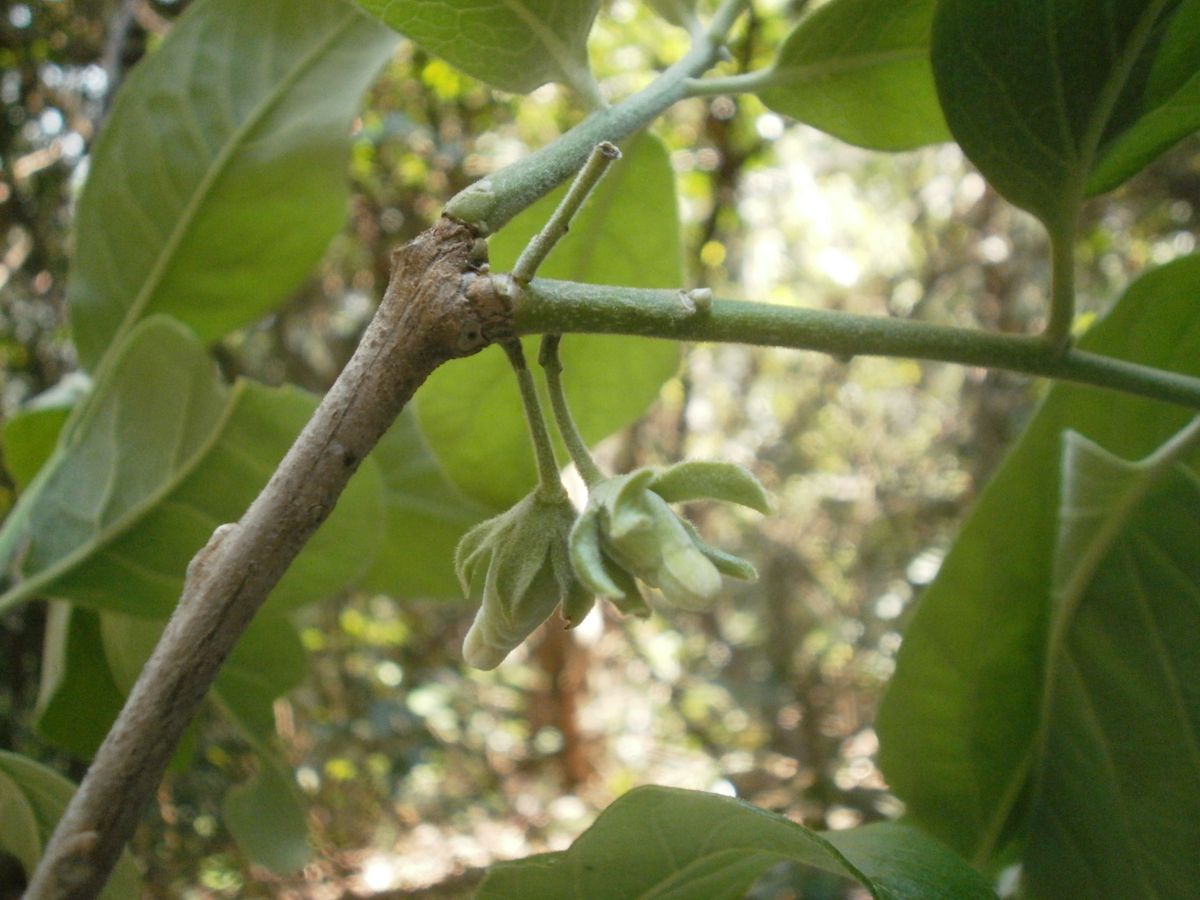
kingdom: Plantae
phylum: Tracheophyta
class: Magnoliopsida
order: Ericales
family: Ebenaceae
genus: Diospyros
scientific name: Diospyros rekoi
